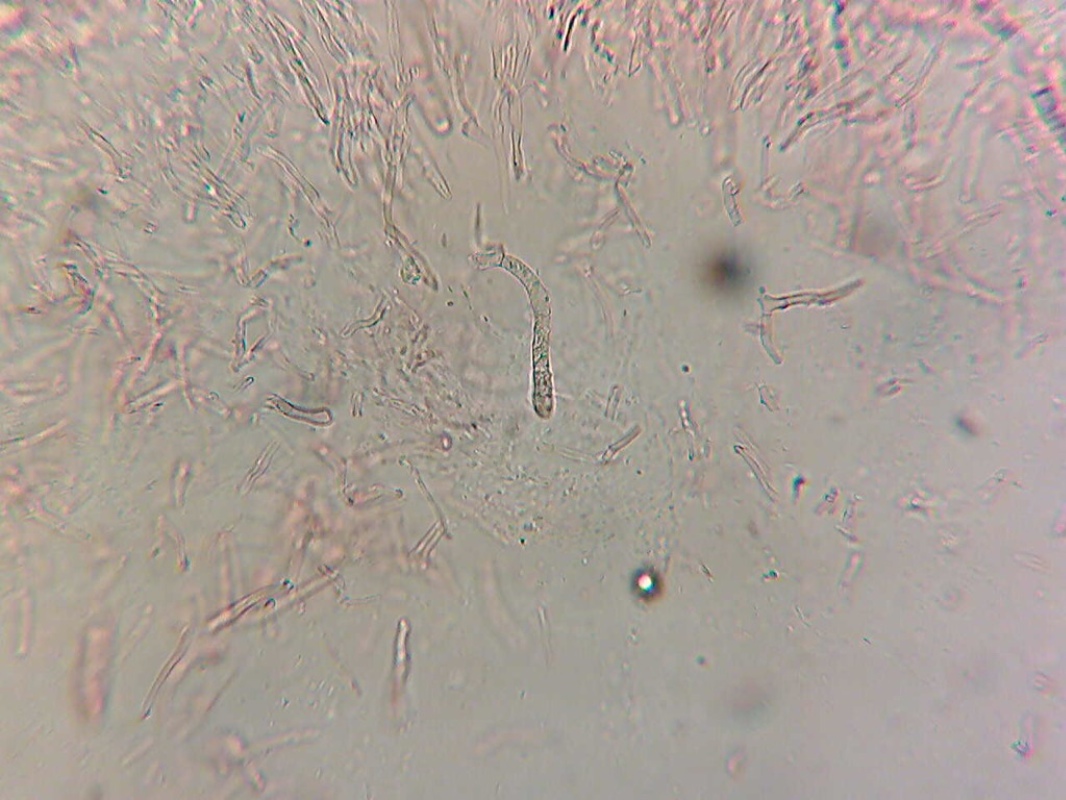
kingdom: Fungi
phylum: Basidiomycota
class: Agaricomycetes
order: Russulales
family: Russulaceae
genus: Russula
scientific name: Russula cuprea
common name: kanel-skørhat
